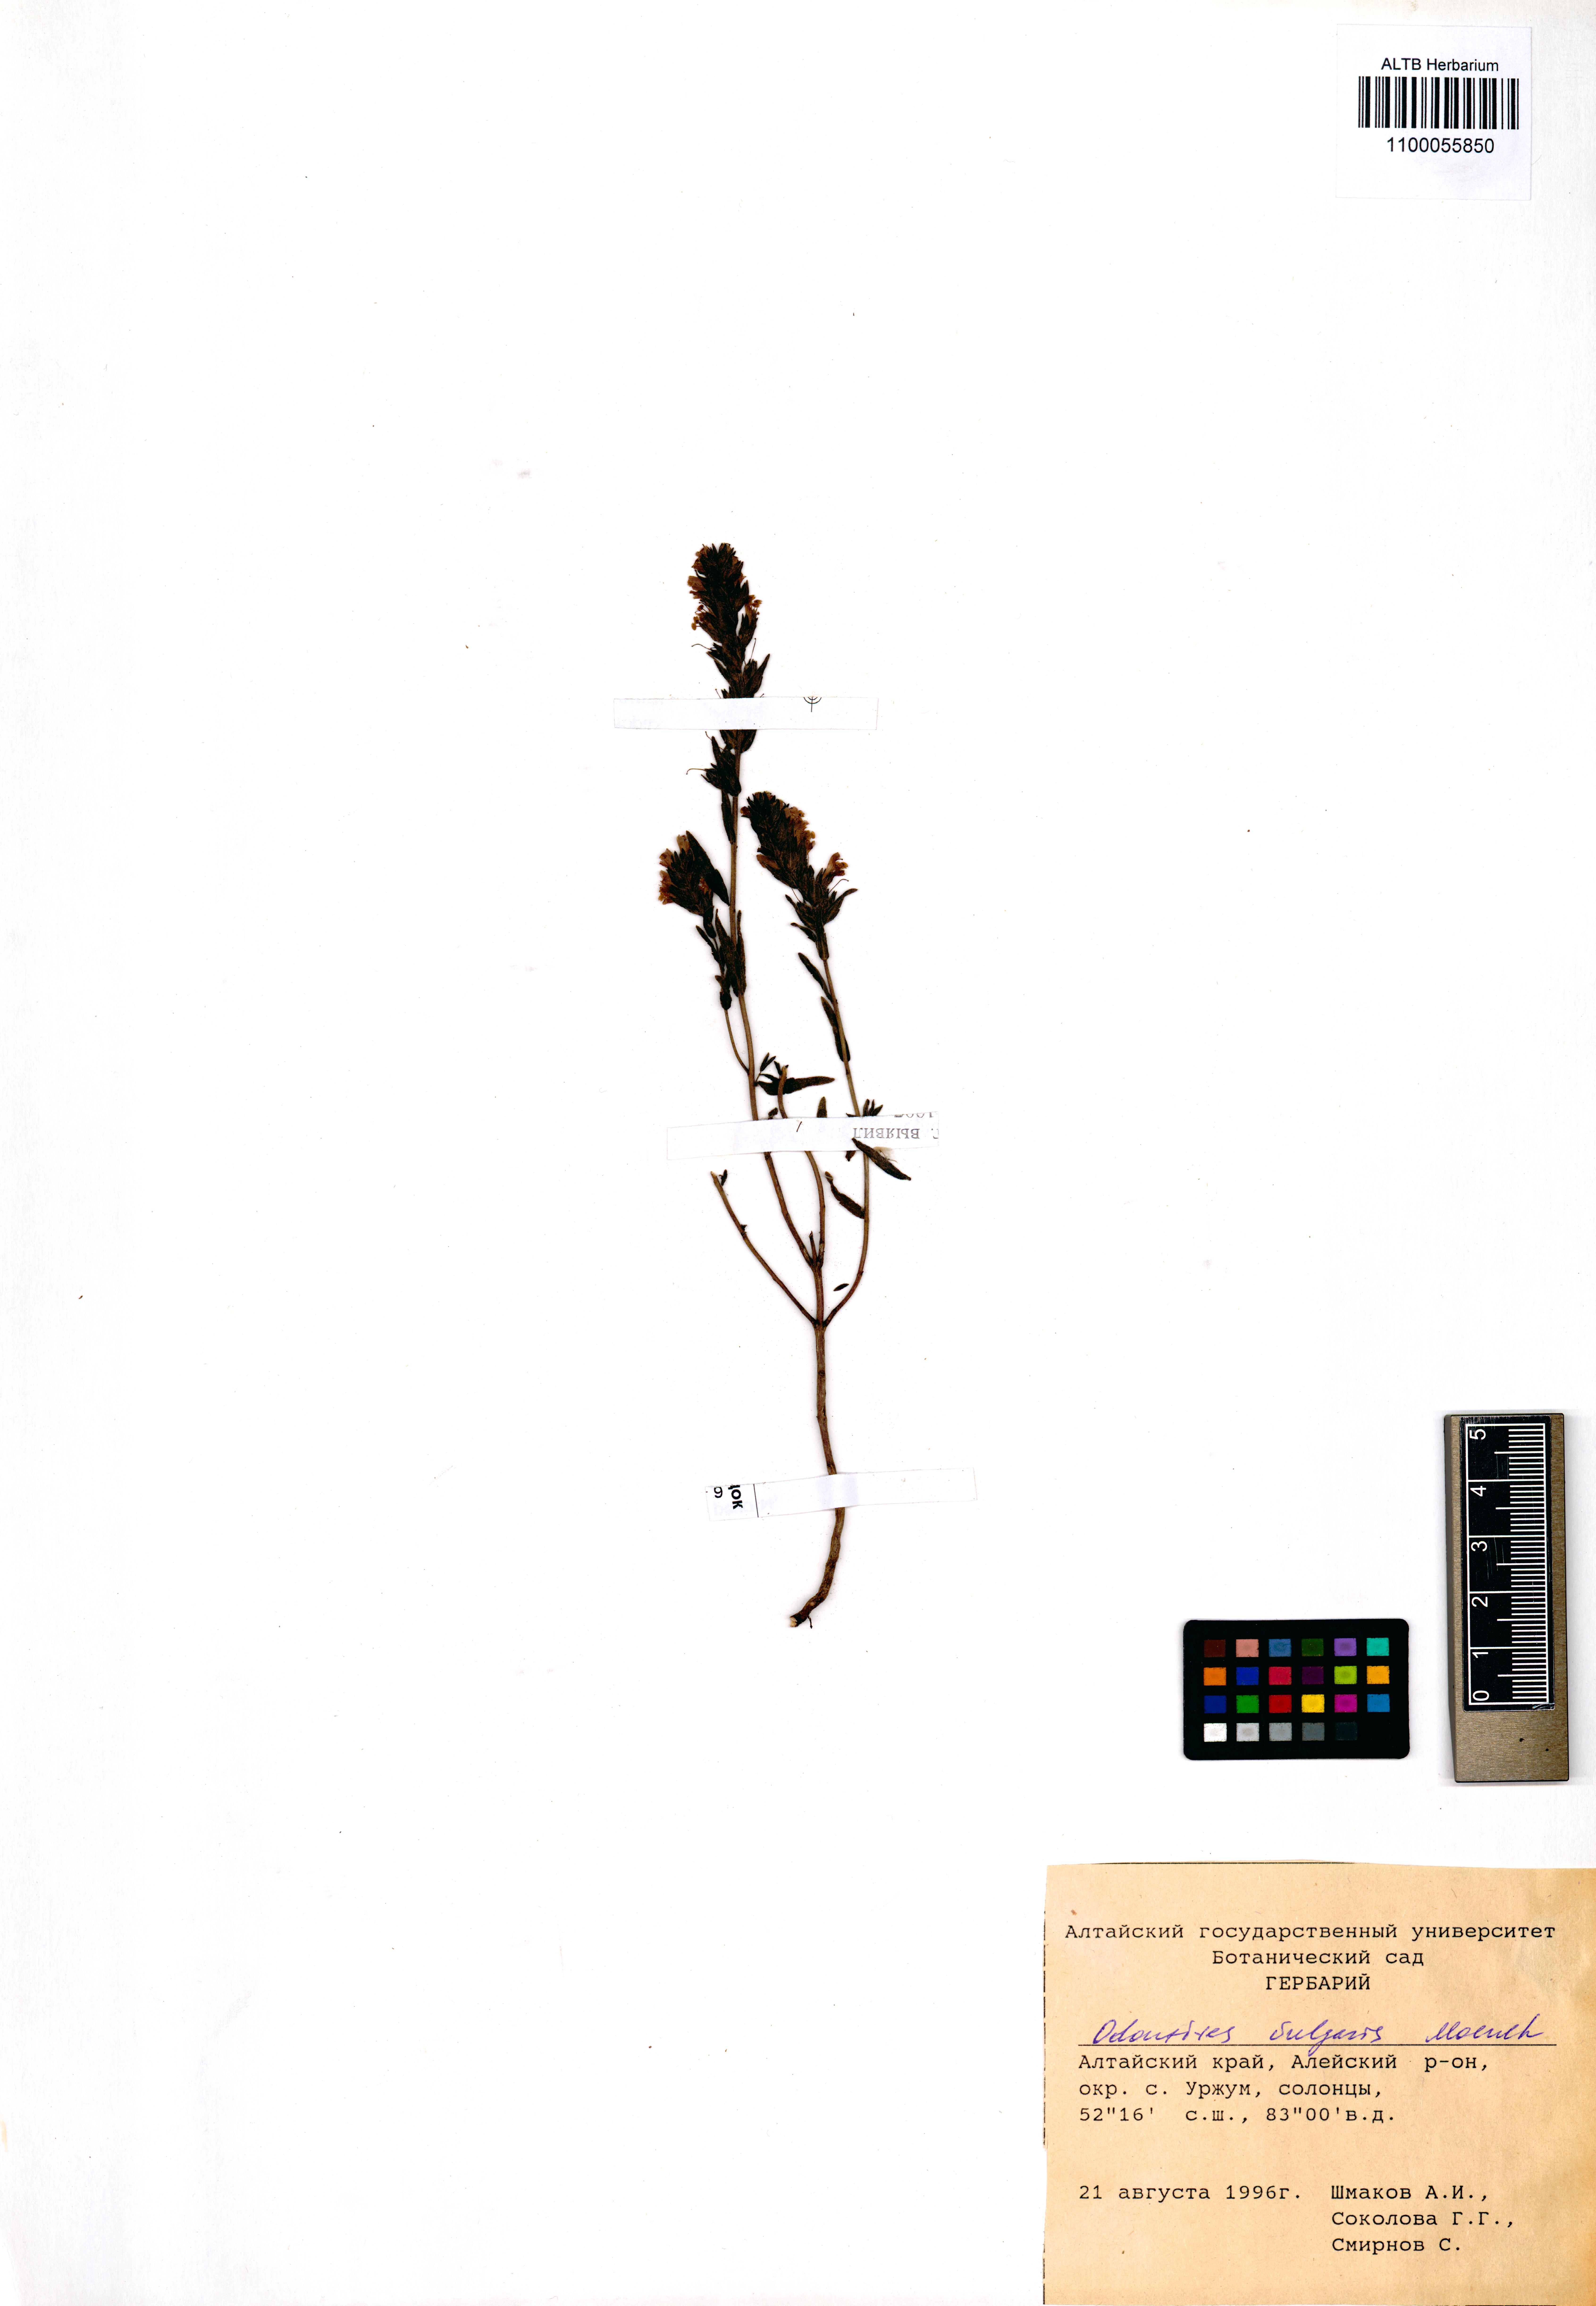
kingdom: Plantae
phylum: Tracheophyta
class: Magnoliopsida
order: Lamiales
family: Orobanchaceae
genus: Odontites
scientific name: Odontites vulgaris
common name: Broomrape
